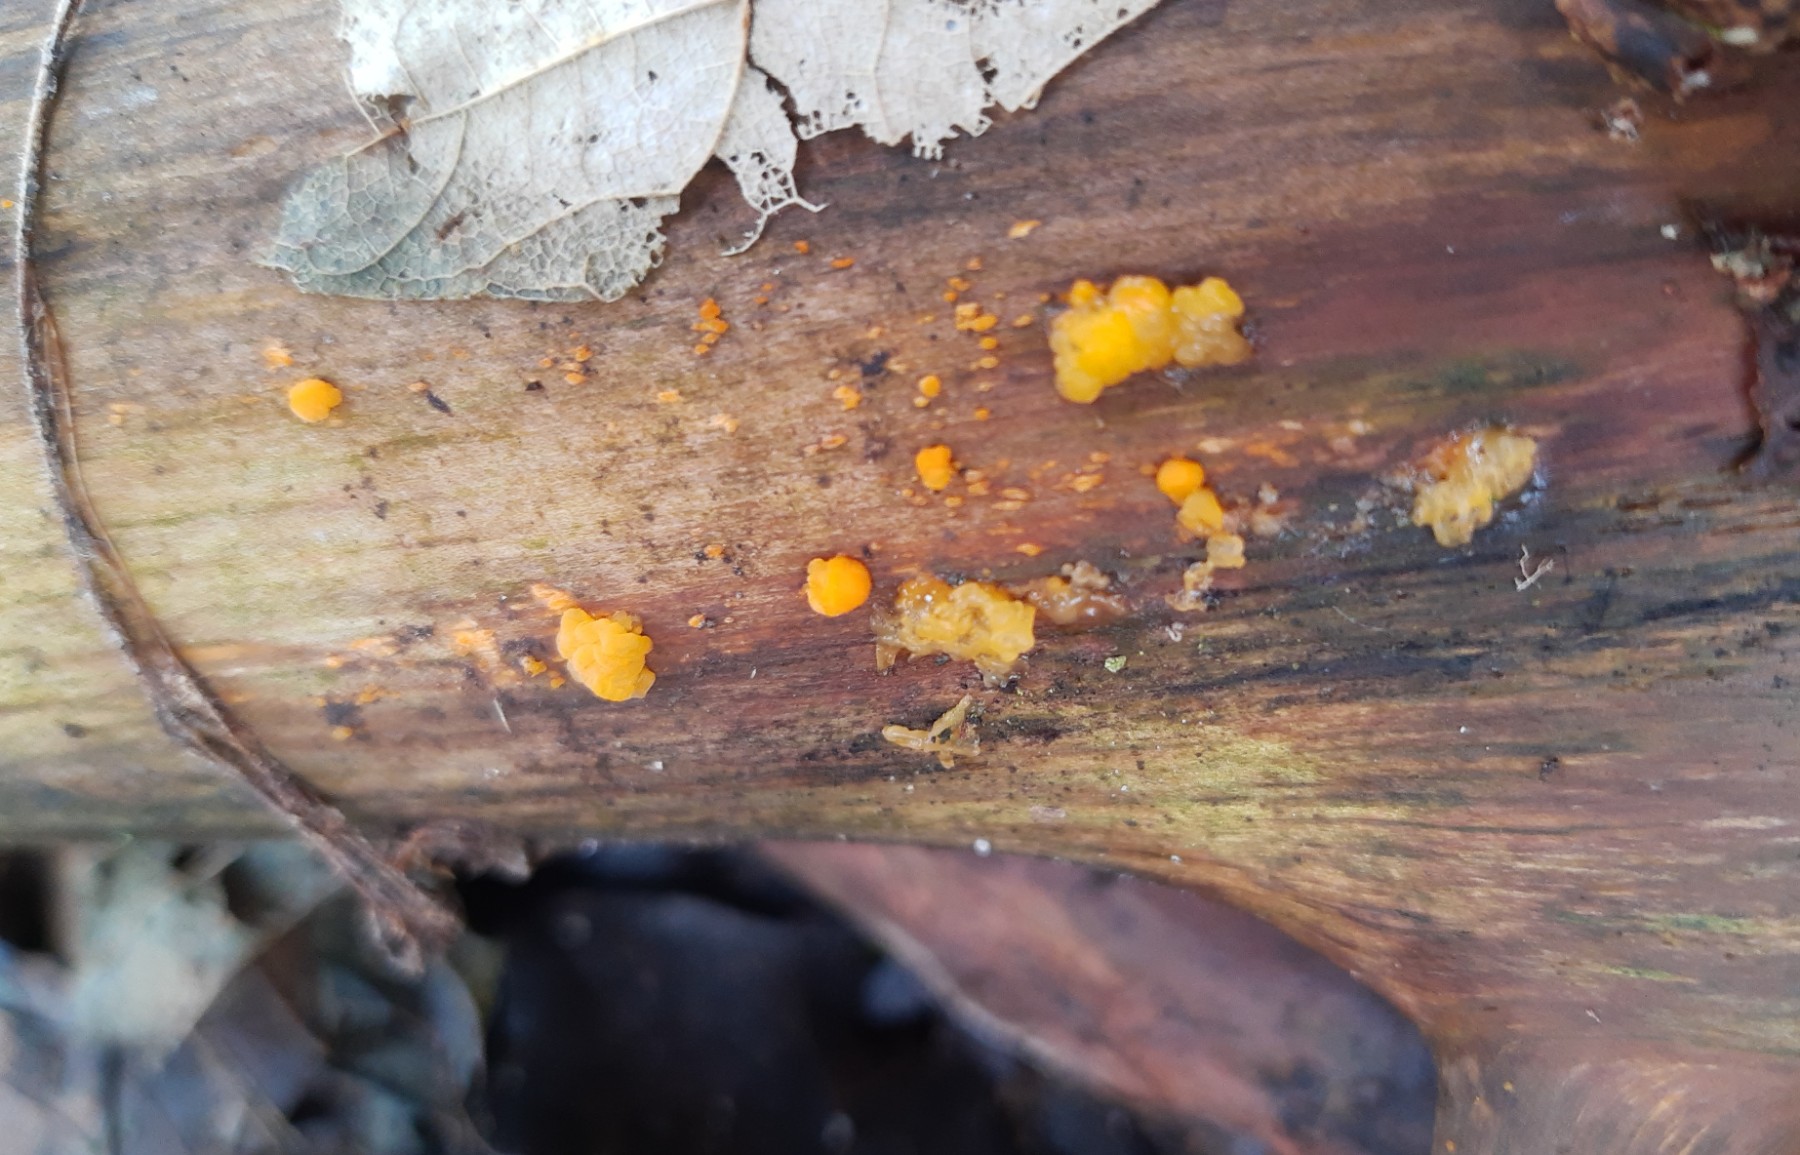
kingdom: Fungi
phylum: Basidiomycota
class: Dacrymycetes
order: Dacrymycetales
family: Dacrymycetaceae
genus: Dacrymyces
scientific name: Dacrymyces stillatus
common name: almindelig tåresvamp
